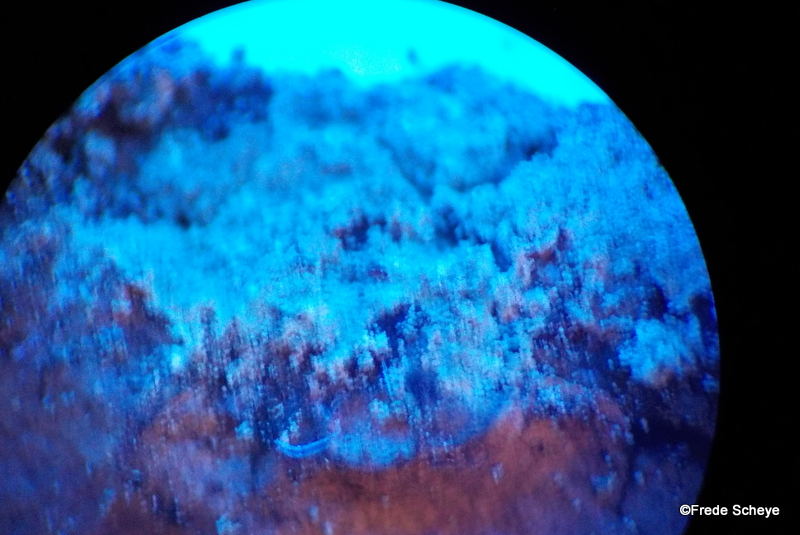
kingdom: Fungi
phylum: Ascomycota
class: Lecanoromycetes
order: Lecanorales
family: Stereocaulaceae
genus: Lepraria
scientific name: Lepraria incana
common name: almindelig støvlav
